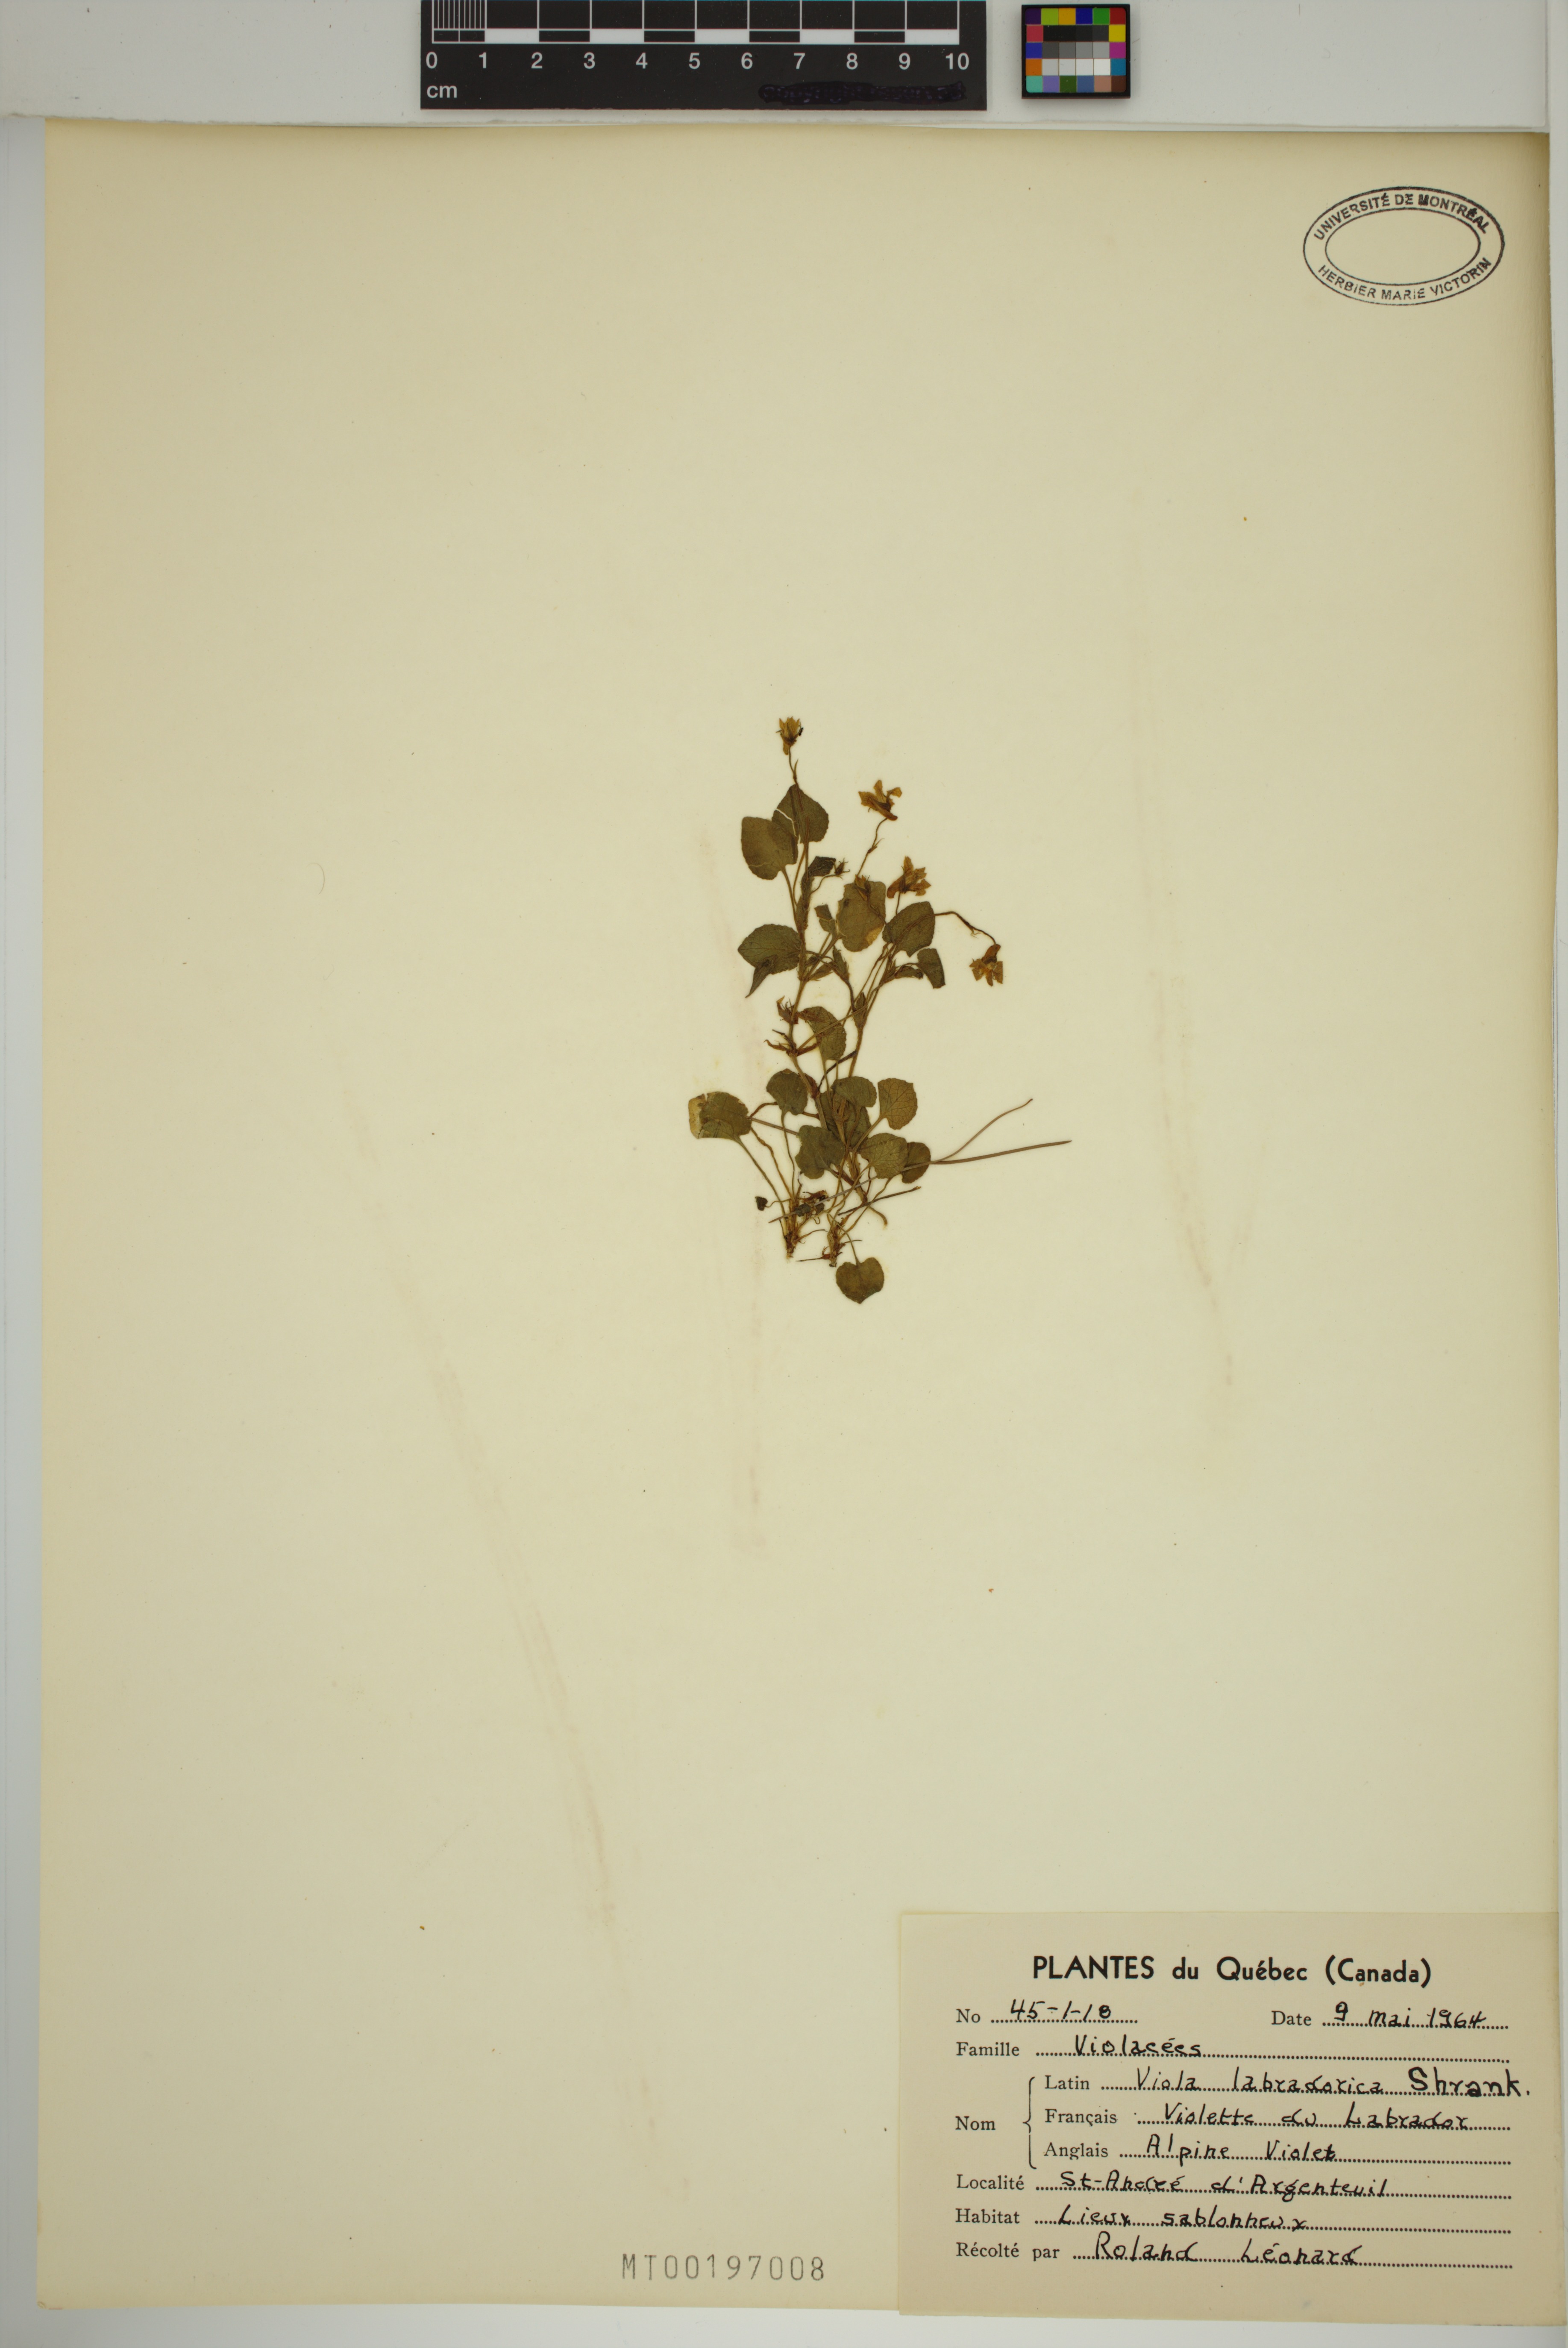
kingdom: Plantae
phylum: Tracheophyta
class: Magnoliopsida
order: Malpighiales
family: Violaceae
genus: Viola
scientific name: Viola labradorica
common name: Labrador violet
